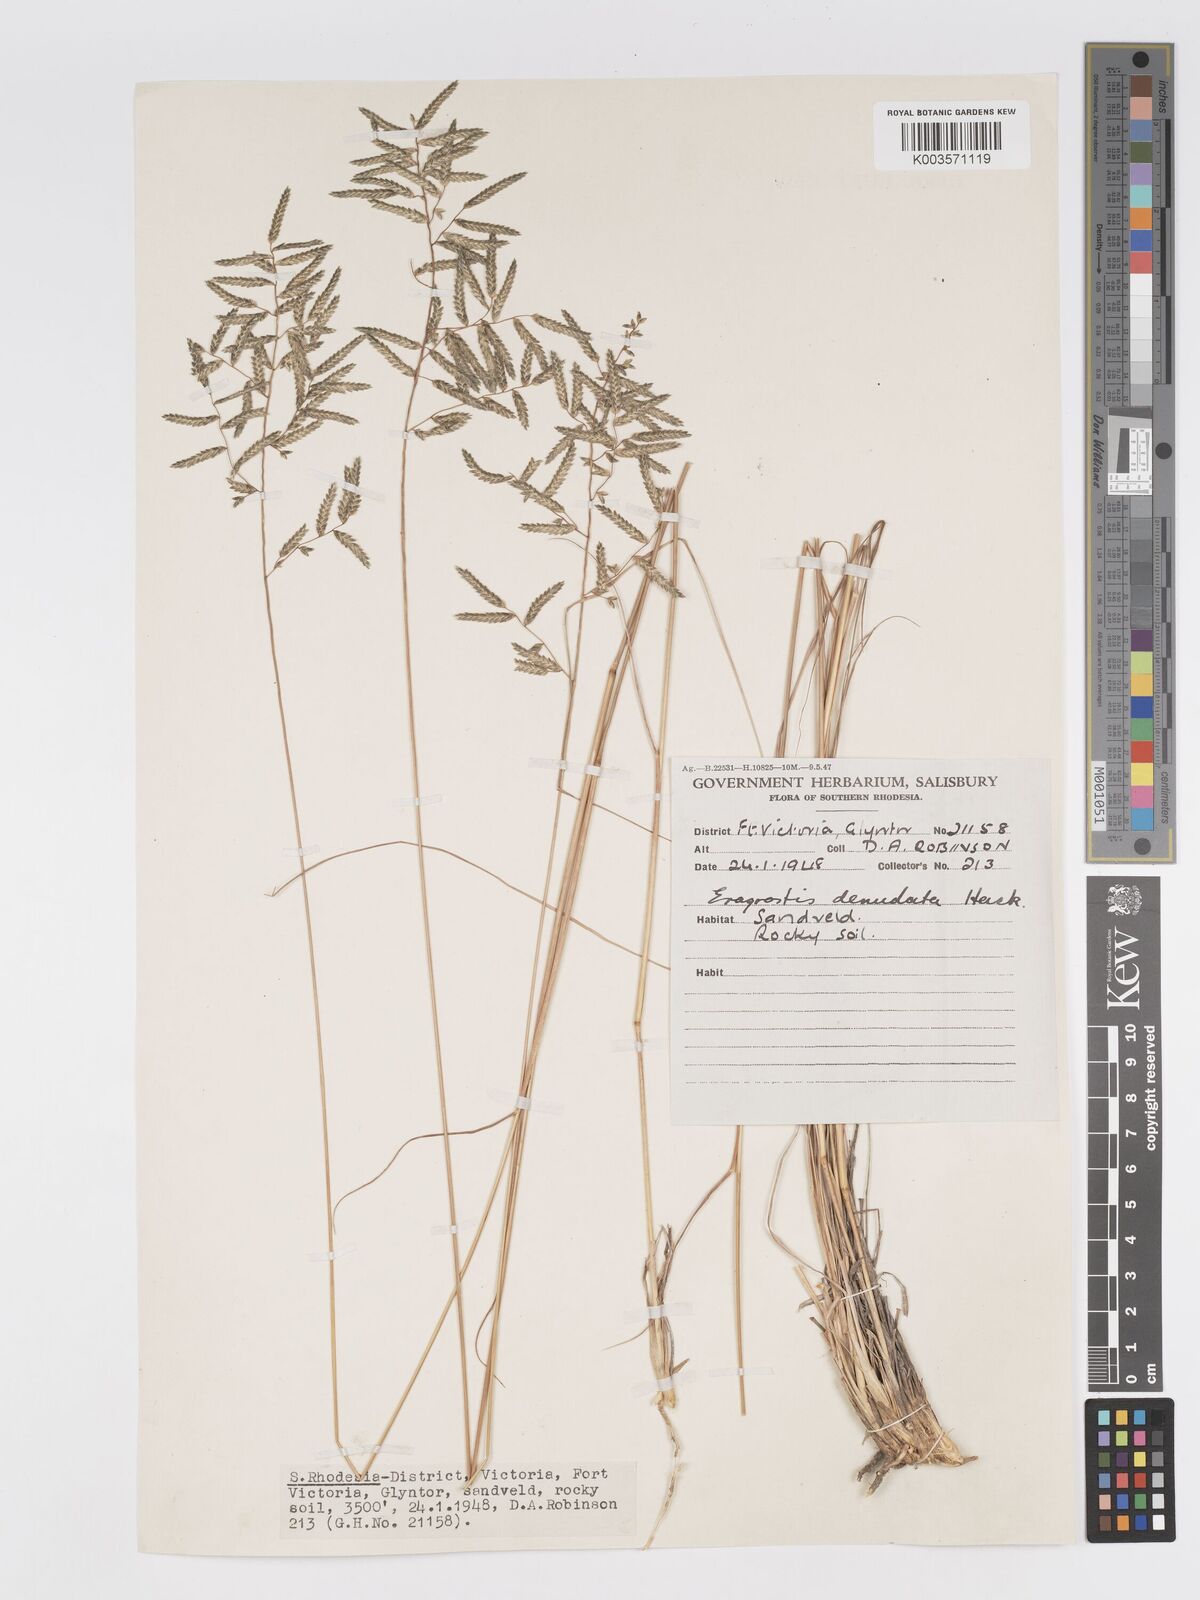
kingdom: Plantae
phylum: Tracheophyta
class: Liliopsida
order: Poales
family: Poaceae
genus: Eragrostis
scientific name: Eragrostis nindensis
